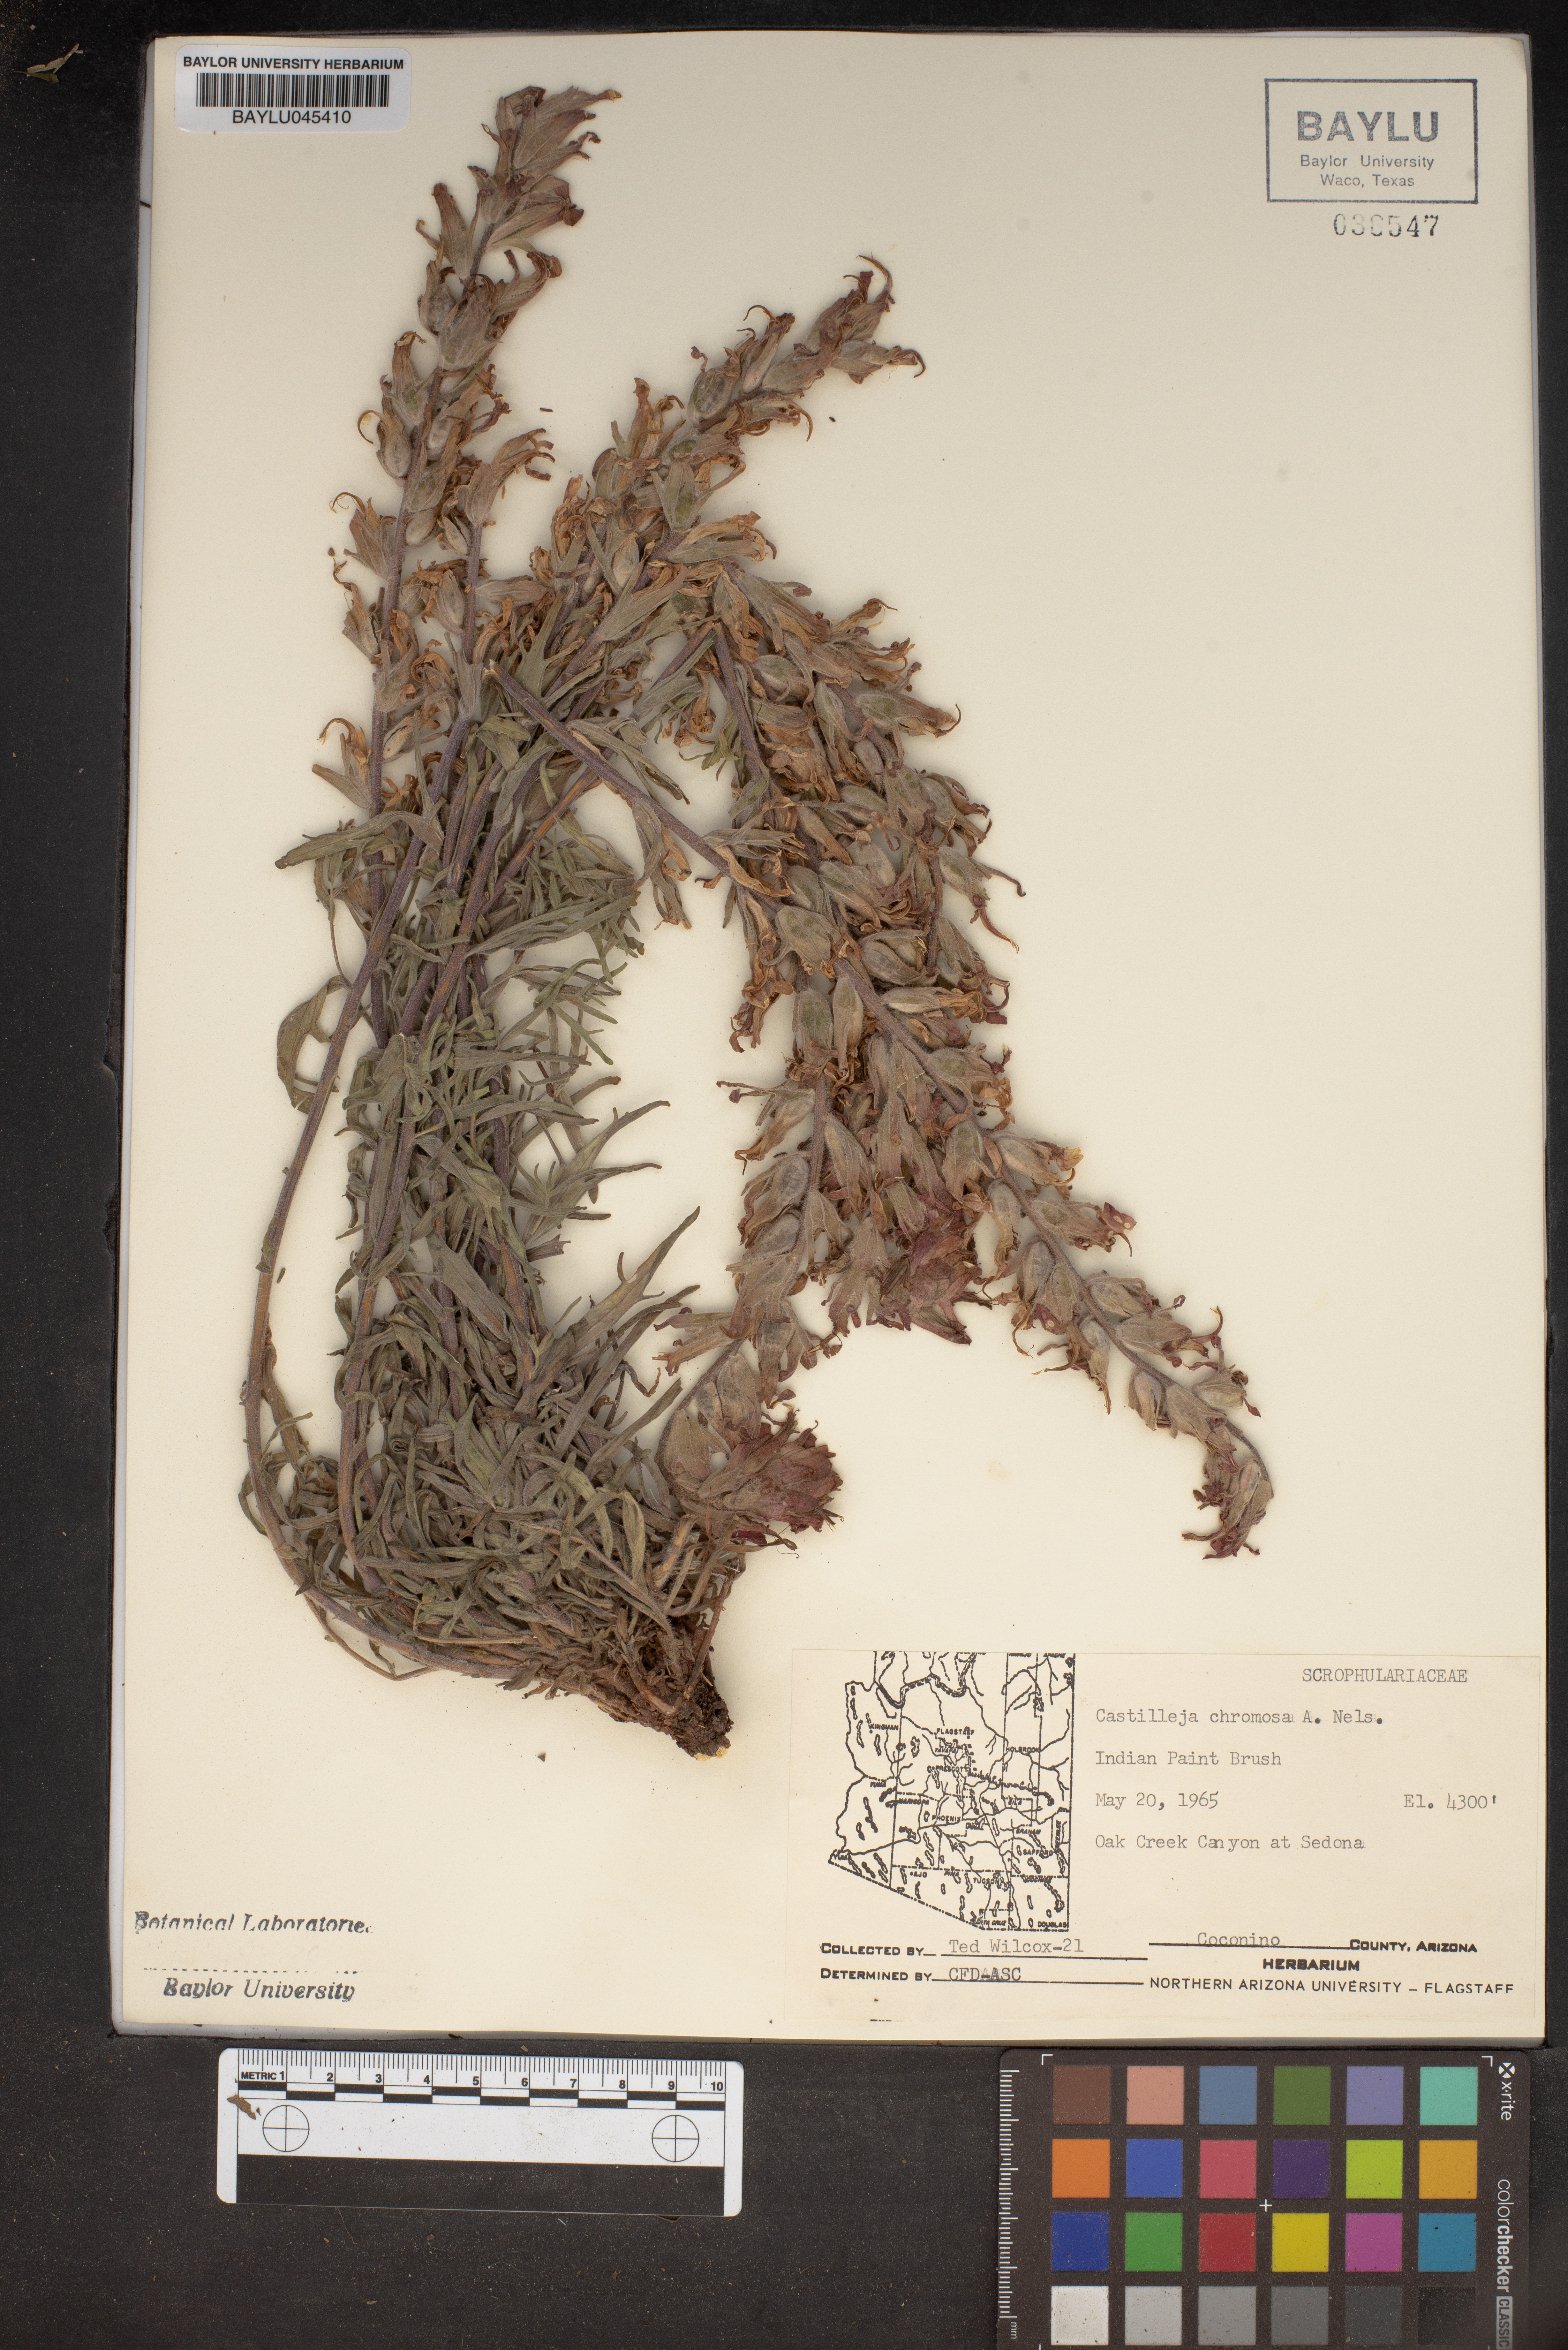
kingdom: Plantae
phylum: Tracheophyta
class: Magnoliopsida
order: Lamiales
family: Orobanchaceae
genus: Castilleja
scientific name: Castilleja chromosa
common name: Desert paintbrush
